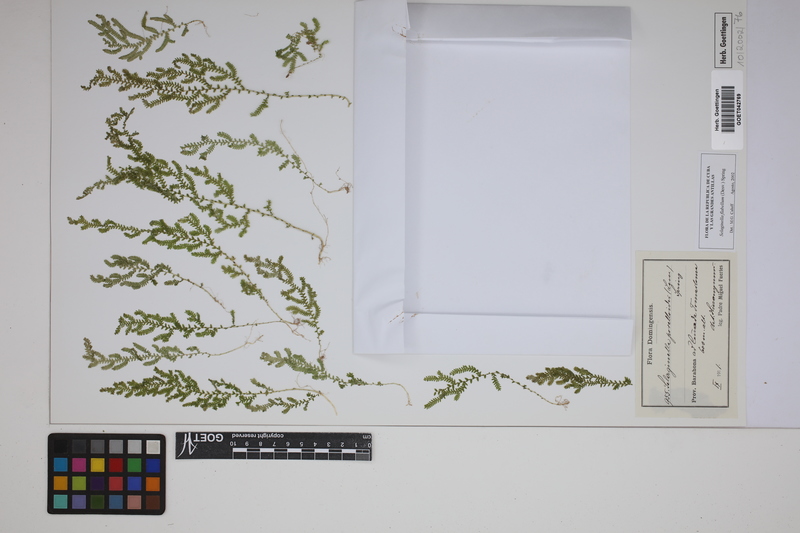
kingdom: Plantae
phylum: Tracheophyta
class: Lycopodiopsida
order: Selaginellales
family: Selaginellaceae
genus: Selaginella
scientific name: Selaginella porelloides
